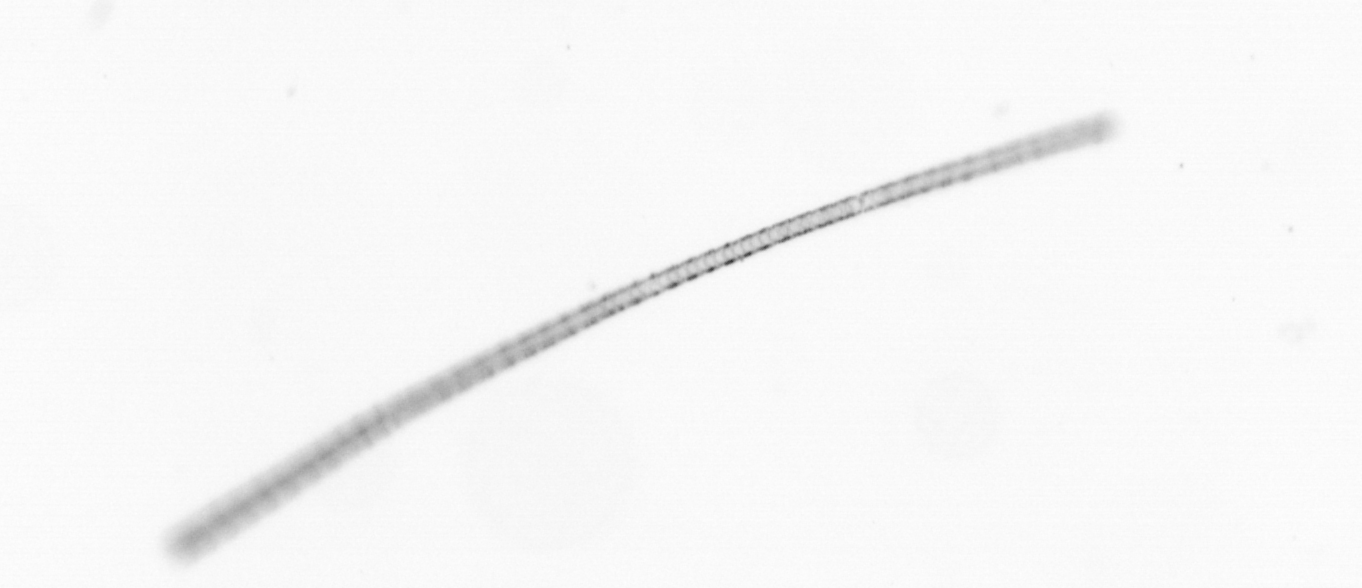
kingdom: Chromista
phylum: Ochrophyta
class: Bacillariophyceae
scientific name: Bacillariophyceae
